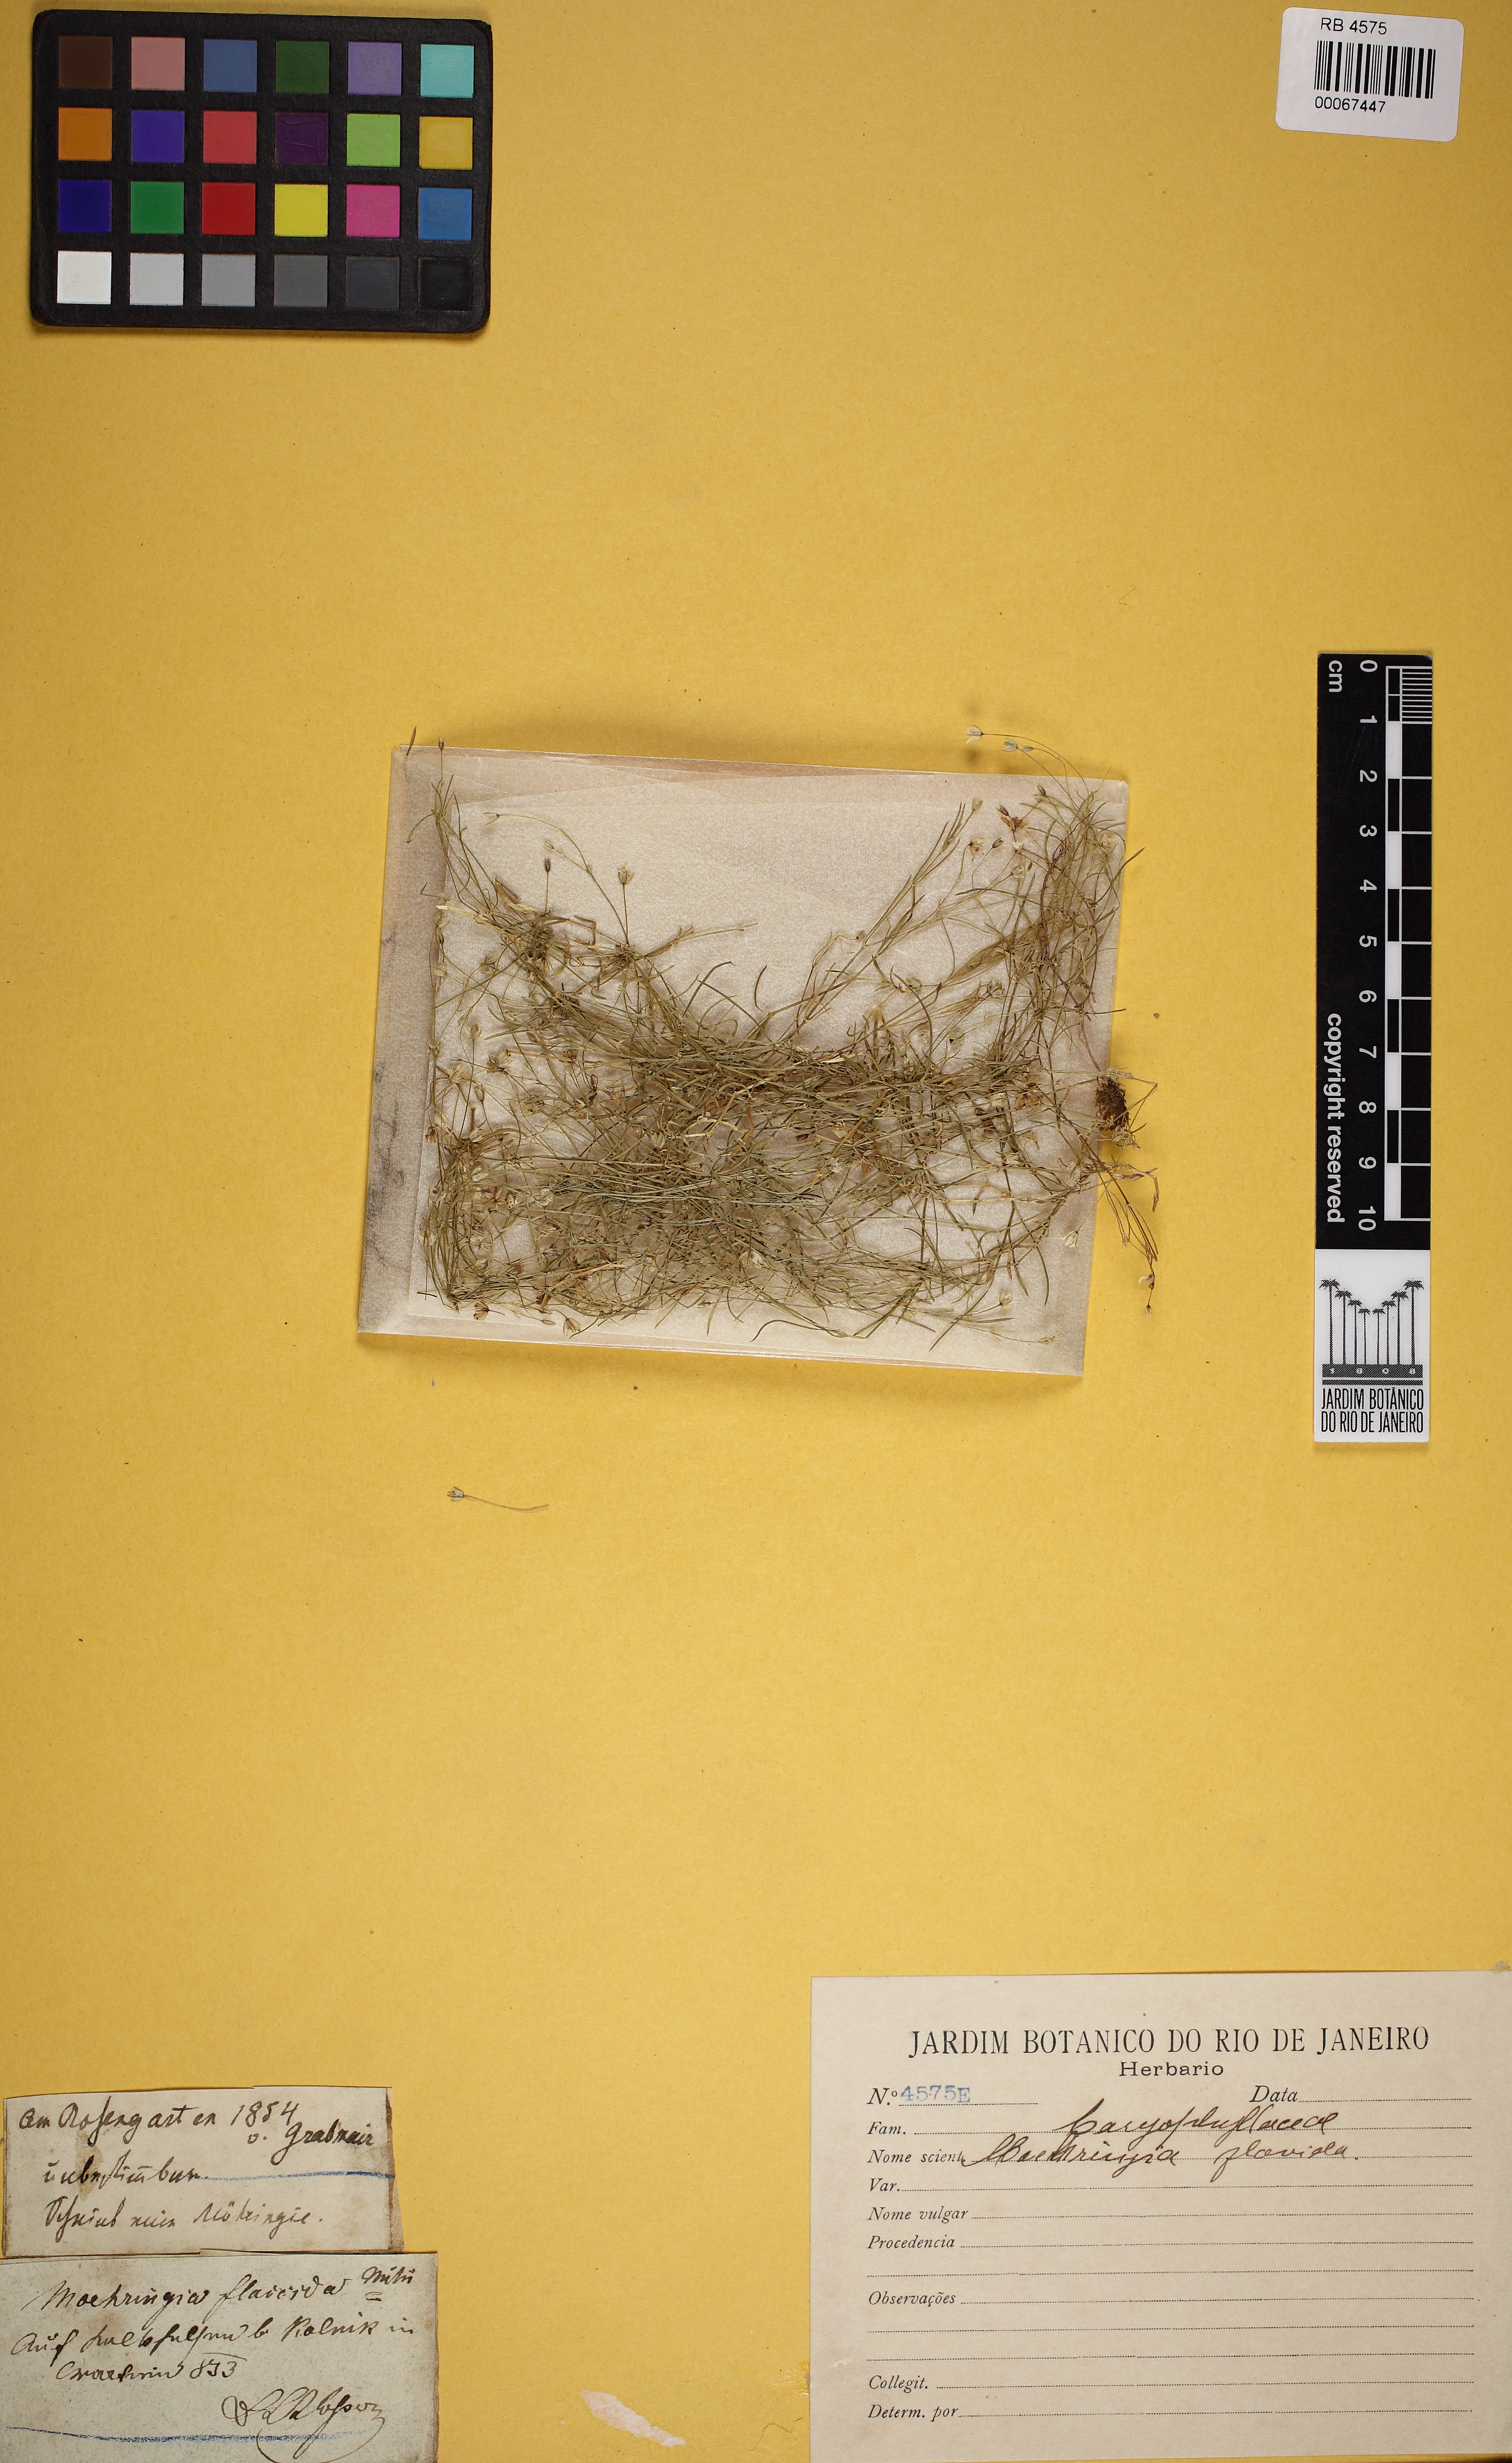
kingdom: Plantae
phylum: Tracheophyta
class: Magnoliopsida
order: Caryophyllales
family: Caryophyllaceae
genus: Moehringia
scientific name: Moehringia trinervia
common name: Three-nerved sandwort
